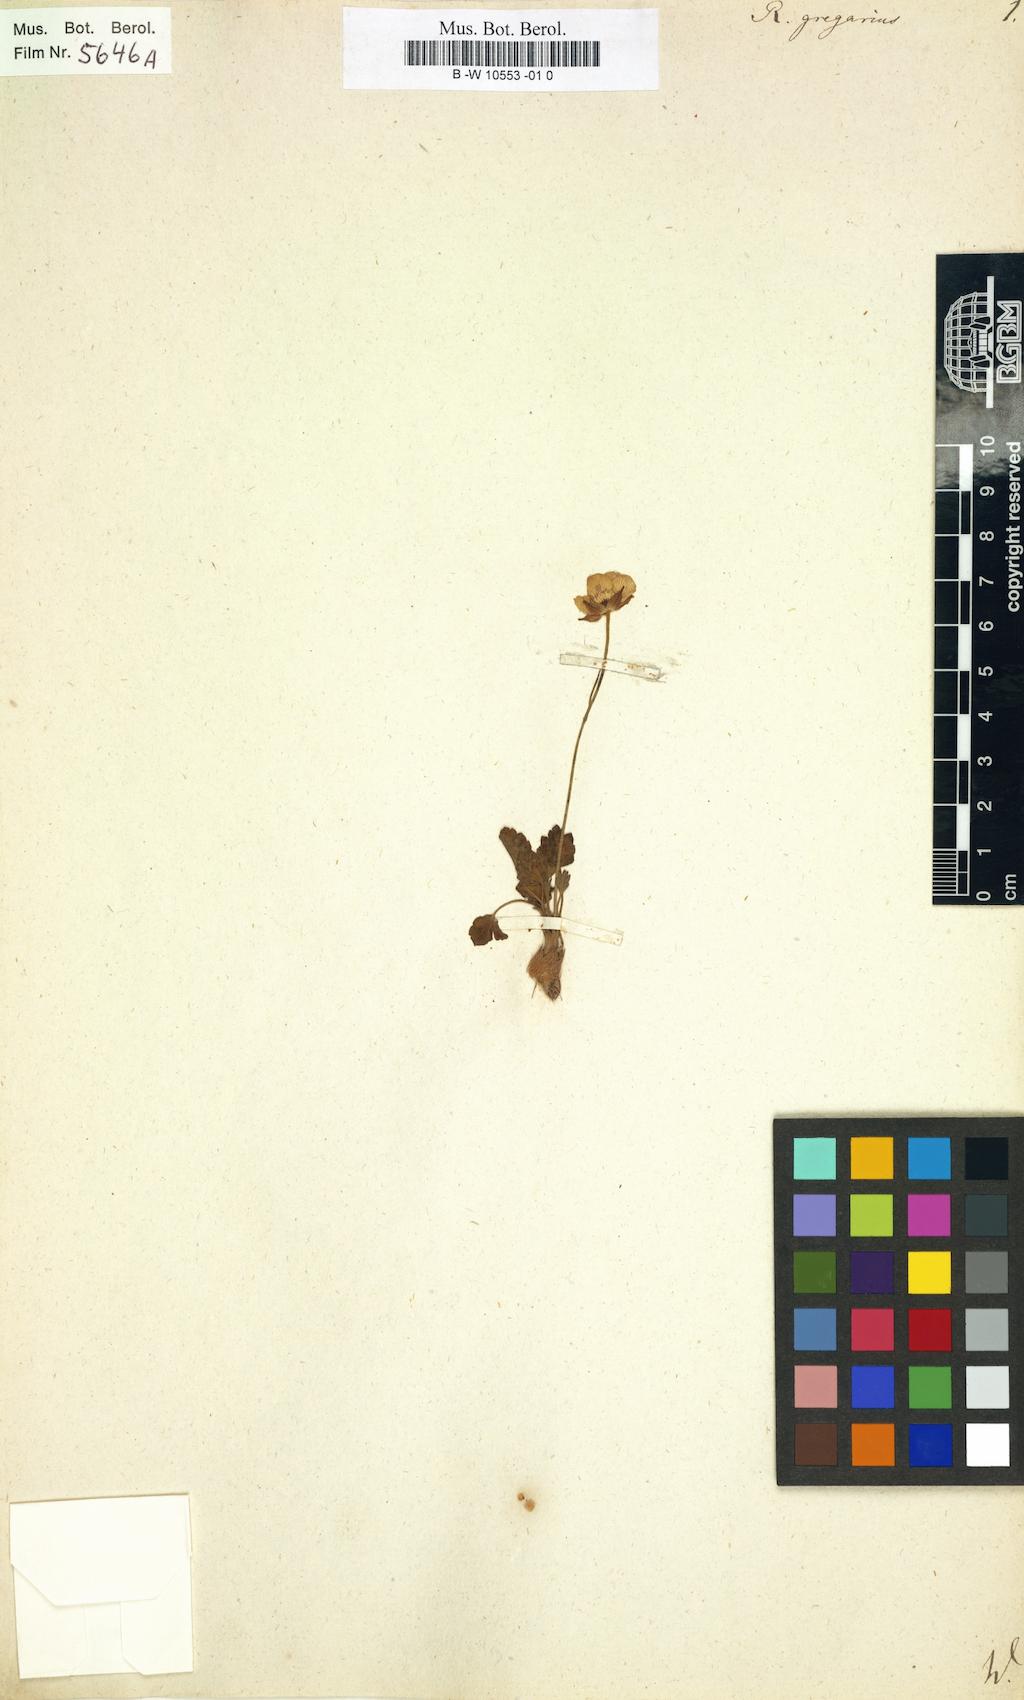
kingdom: Plantae
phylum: Tracheophyta
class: Magnoliopsida
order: Ranunculales
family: Ranunculaceae
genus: Ranunculus
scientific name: Ranunculus gregarius
